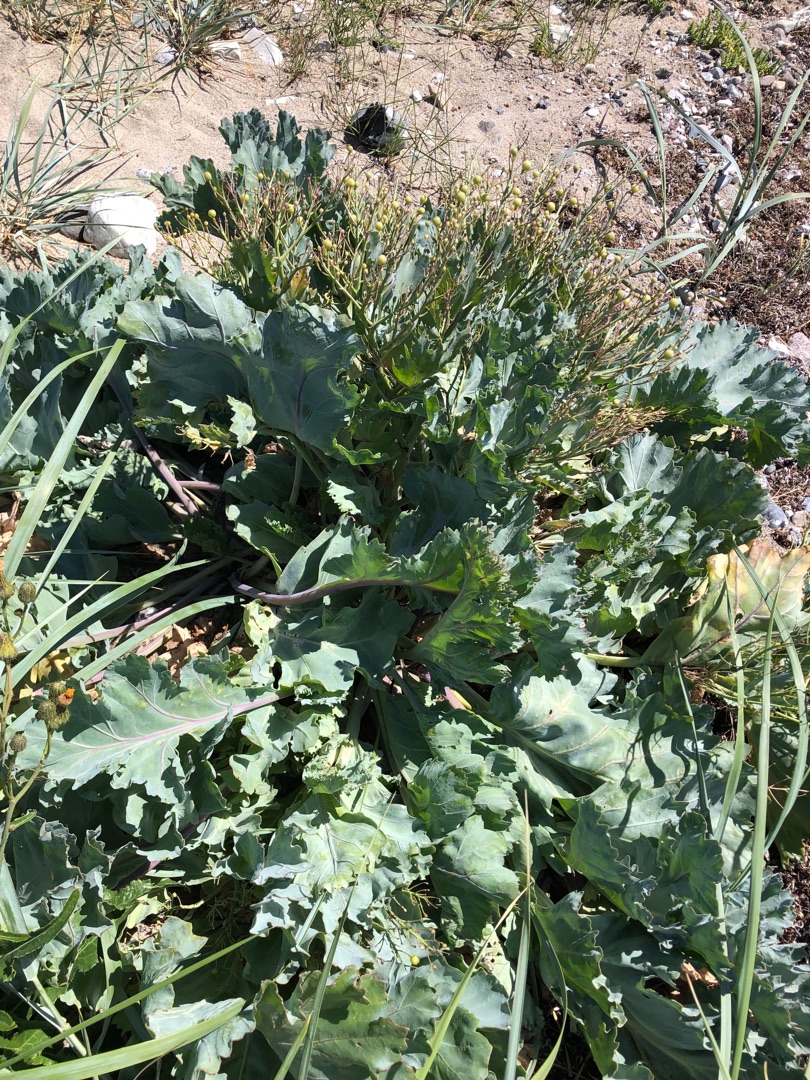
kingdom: Plantae
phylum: Tracheophyta
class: Magnoliopsida
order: Brassicales
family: Brassicaceae
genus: Crambe
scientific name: Crambe maritima
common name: Strandkål
